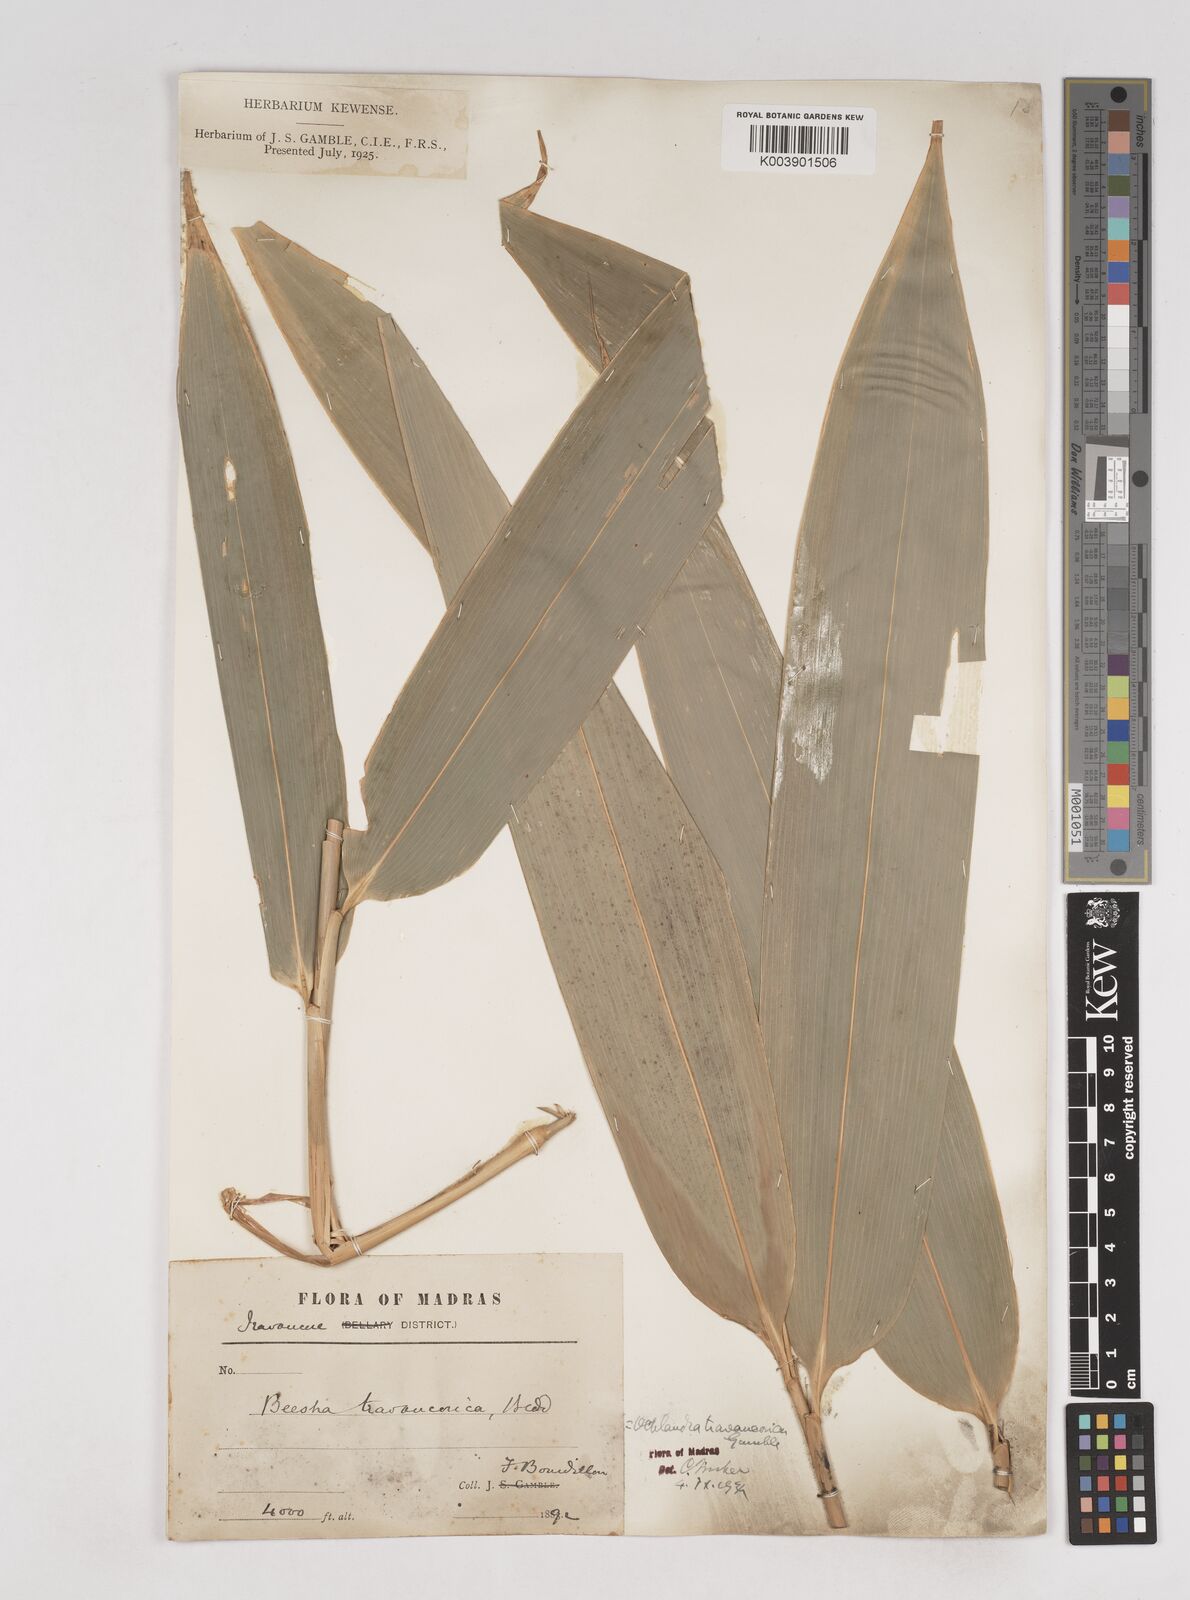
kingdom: Plantae
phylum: Tracheophyta
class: Liliopsida
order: Poales
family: Poaceae
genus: Ochlandra
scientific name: Ochlandra travancorica
